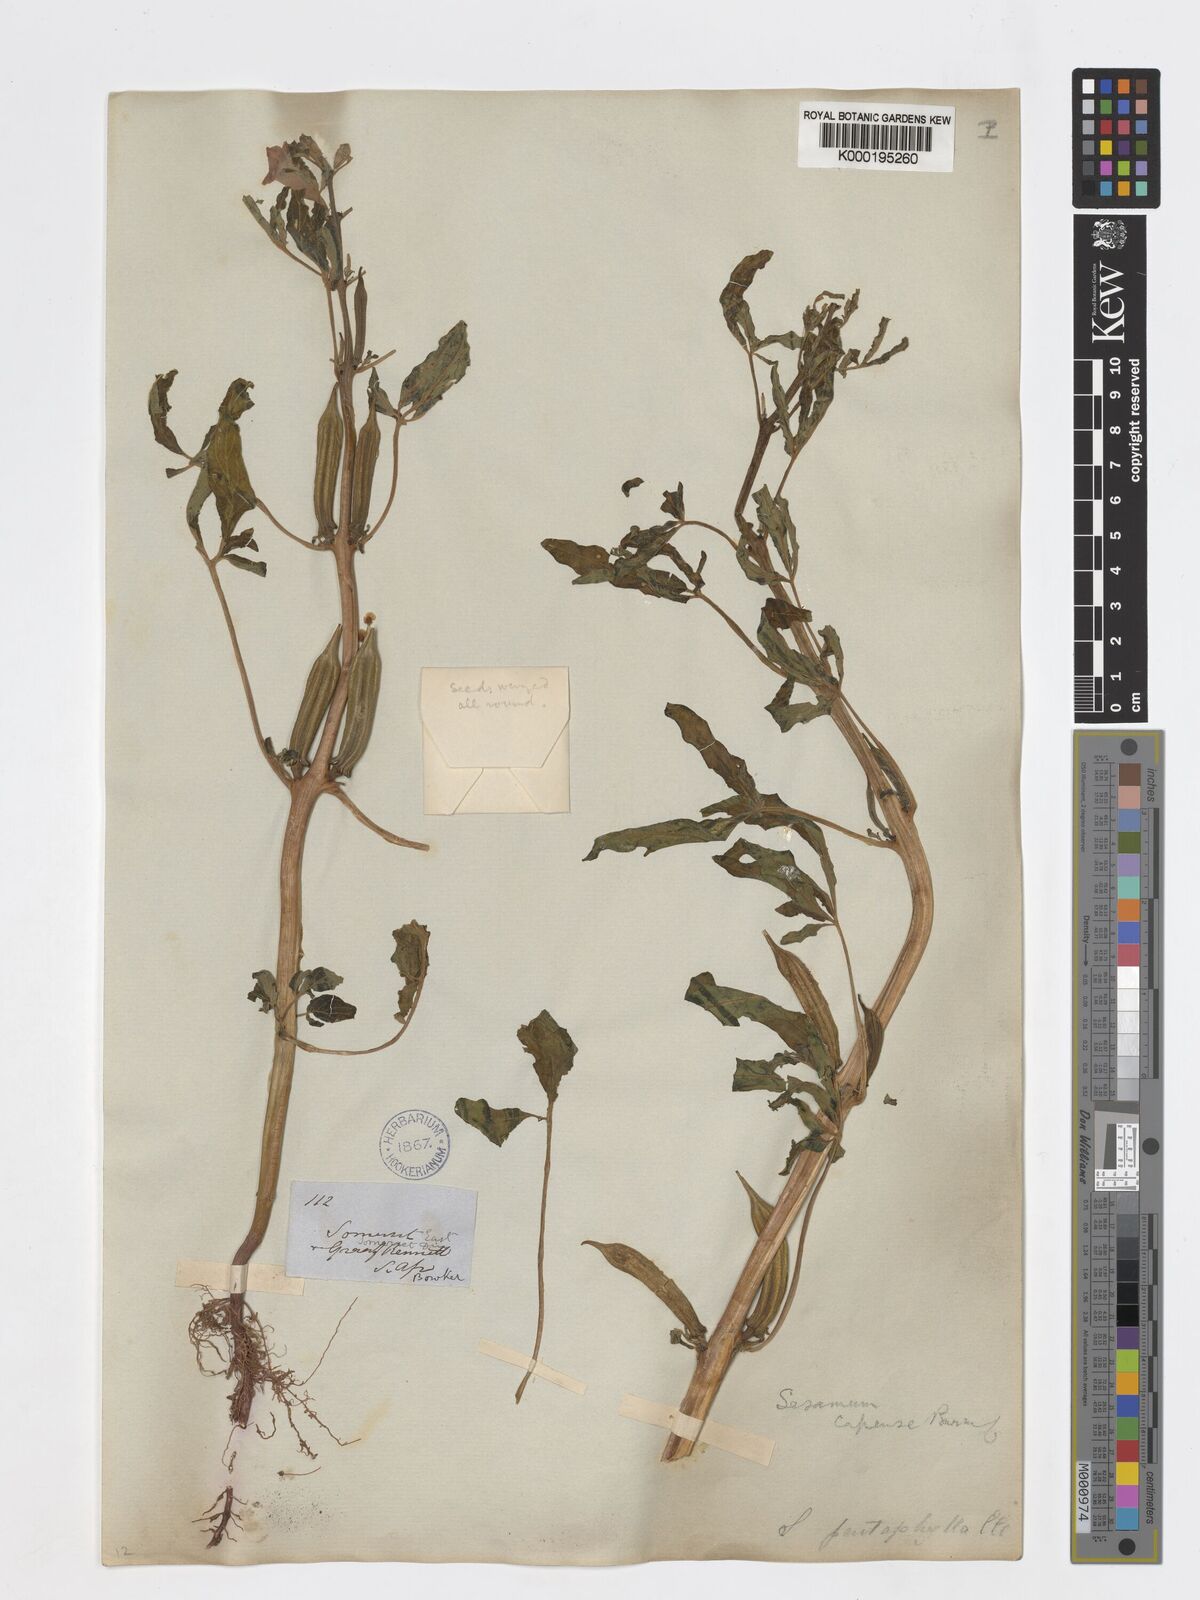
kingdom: Plantae
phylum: Tracheophyta
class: Magnoliopsida
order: Lamiales
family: Pedaliaceae
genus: Sesamum
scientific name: Sesamum capense
